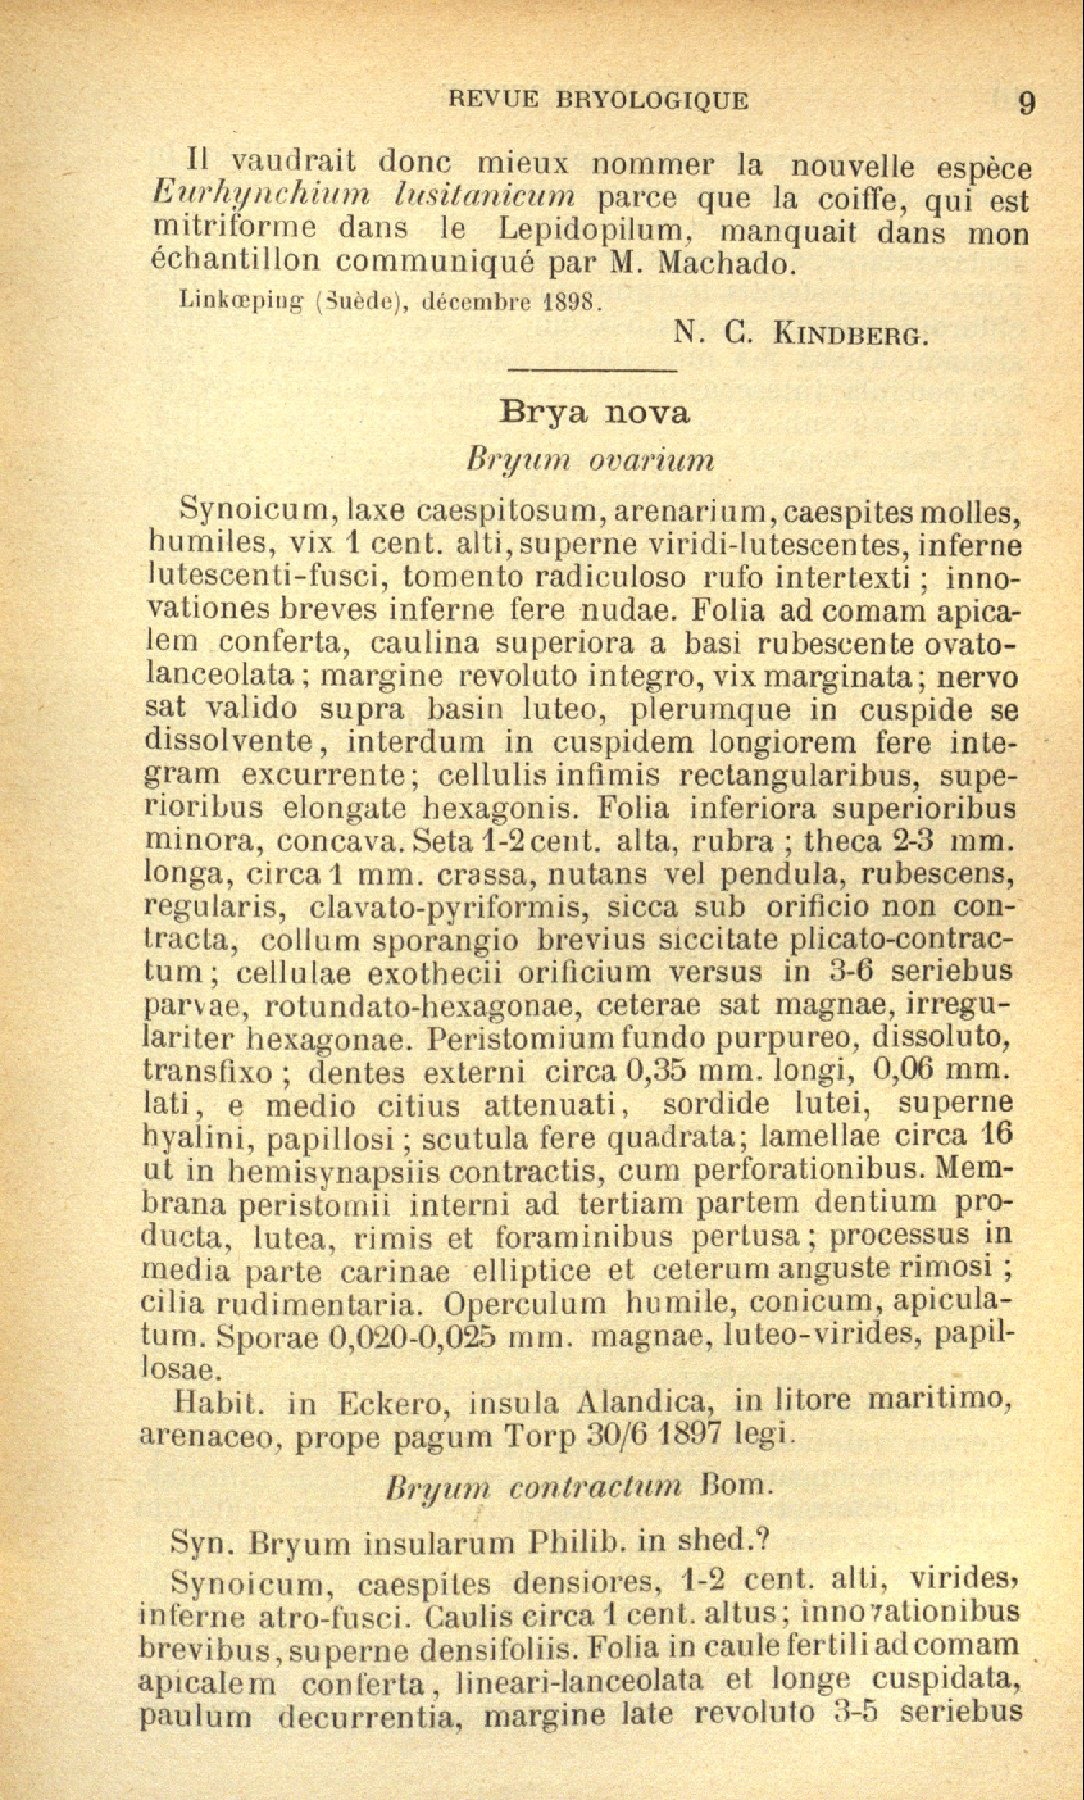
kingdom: Plantae
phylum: Bryophyta
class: Bryopsida
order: Bryales
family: Bryaceae
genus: Ptychostomum
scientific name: Ptychostomum inclinatum
